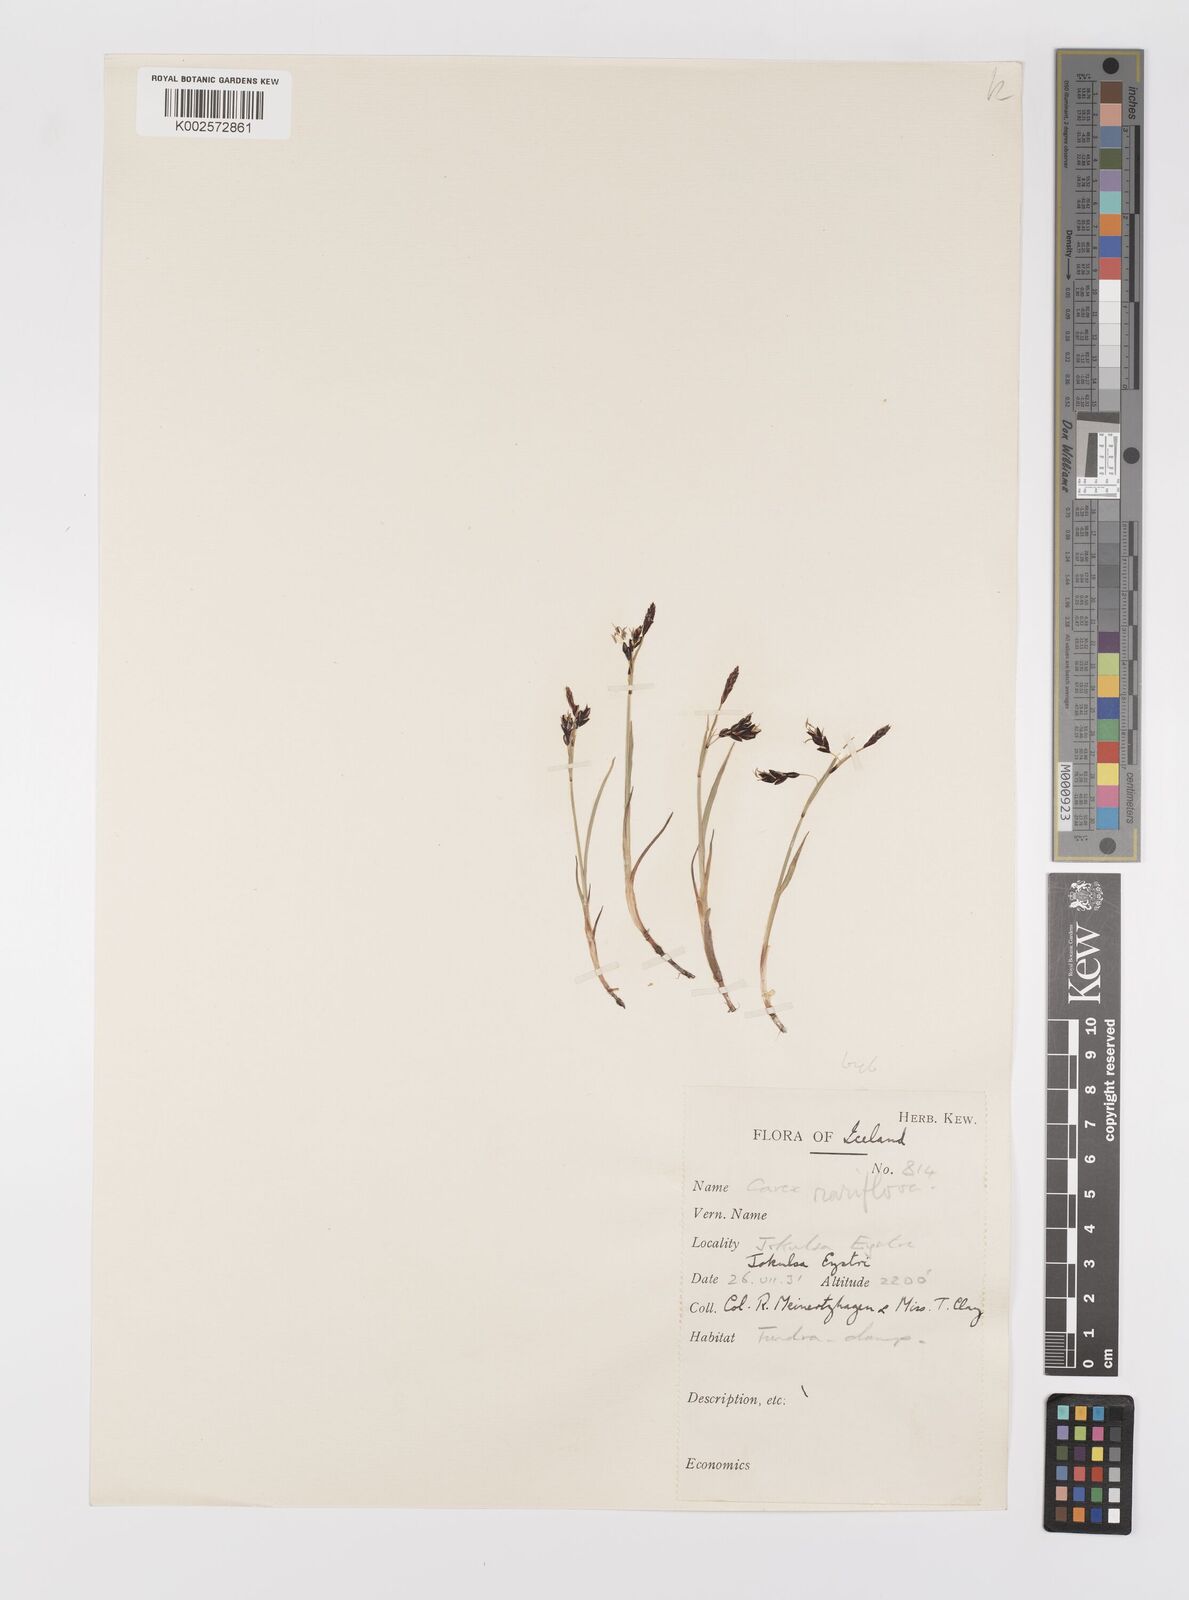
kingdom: Plantae
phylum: Tracheophyta
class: Liliopsida
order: Poales
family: Cyperaceae
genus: Carex
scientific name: Carex rariflora
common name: Loose-flowered alpine sedge
